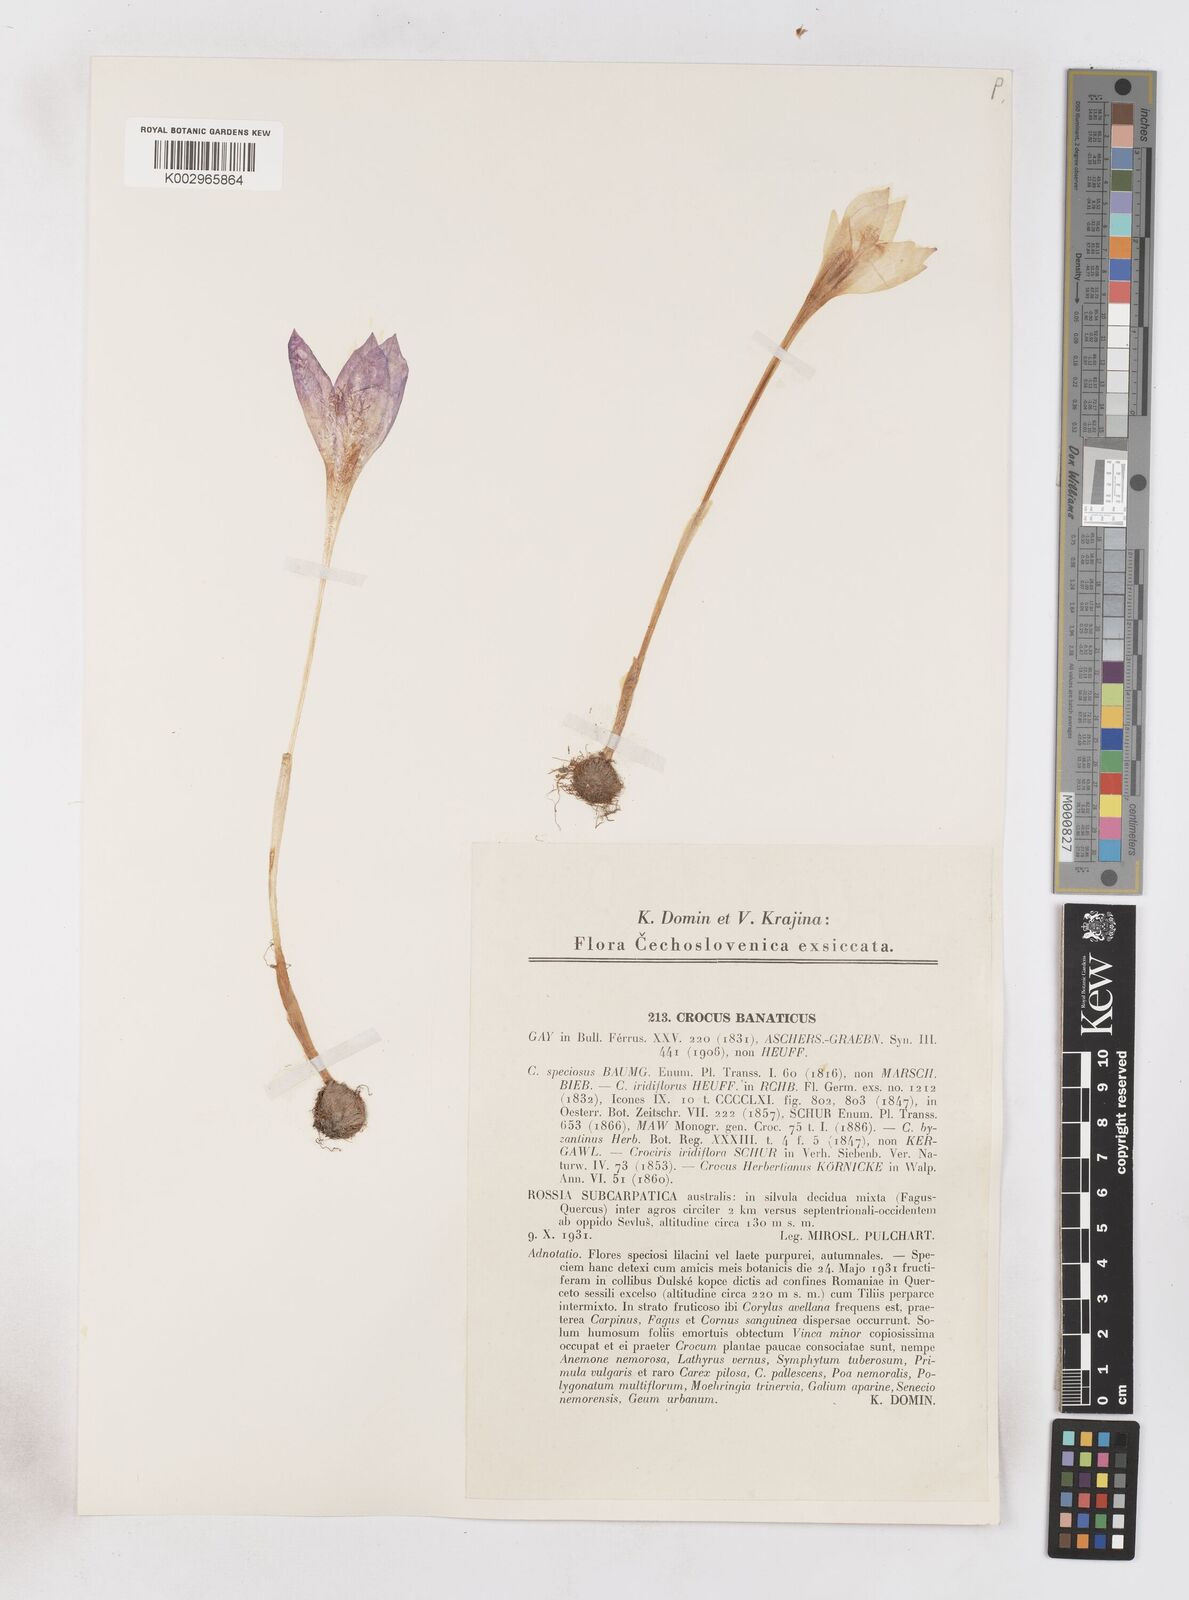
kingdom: Plantae
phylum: Tracheophyta
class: Liliopsida
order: Asparagales
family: Iridaceae
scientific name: Iridaceae
